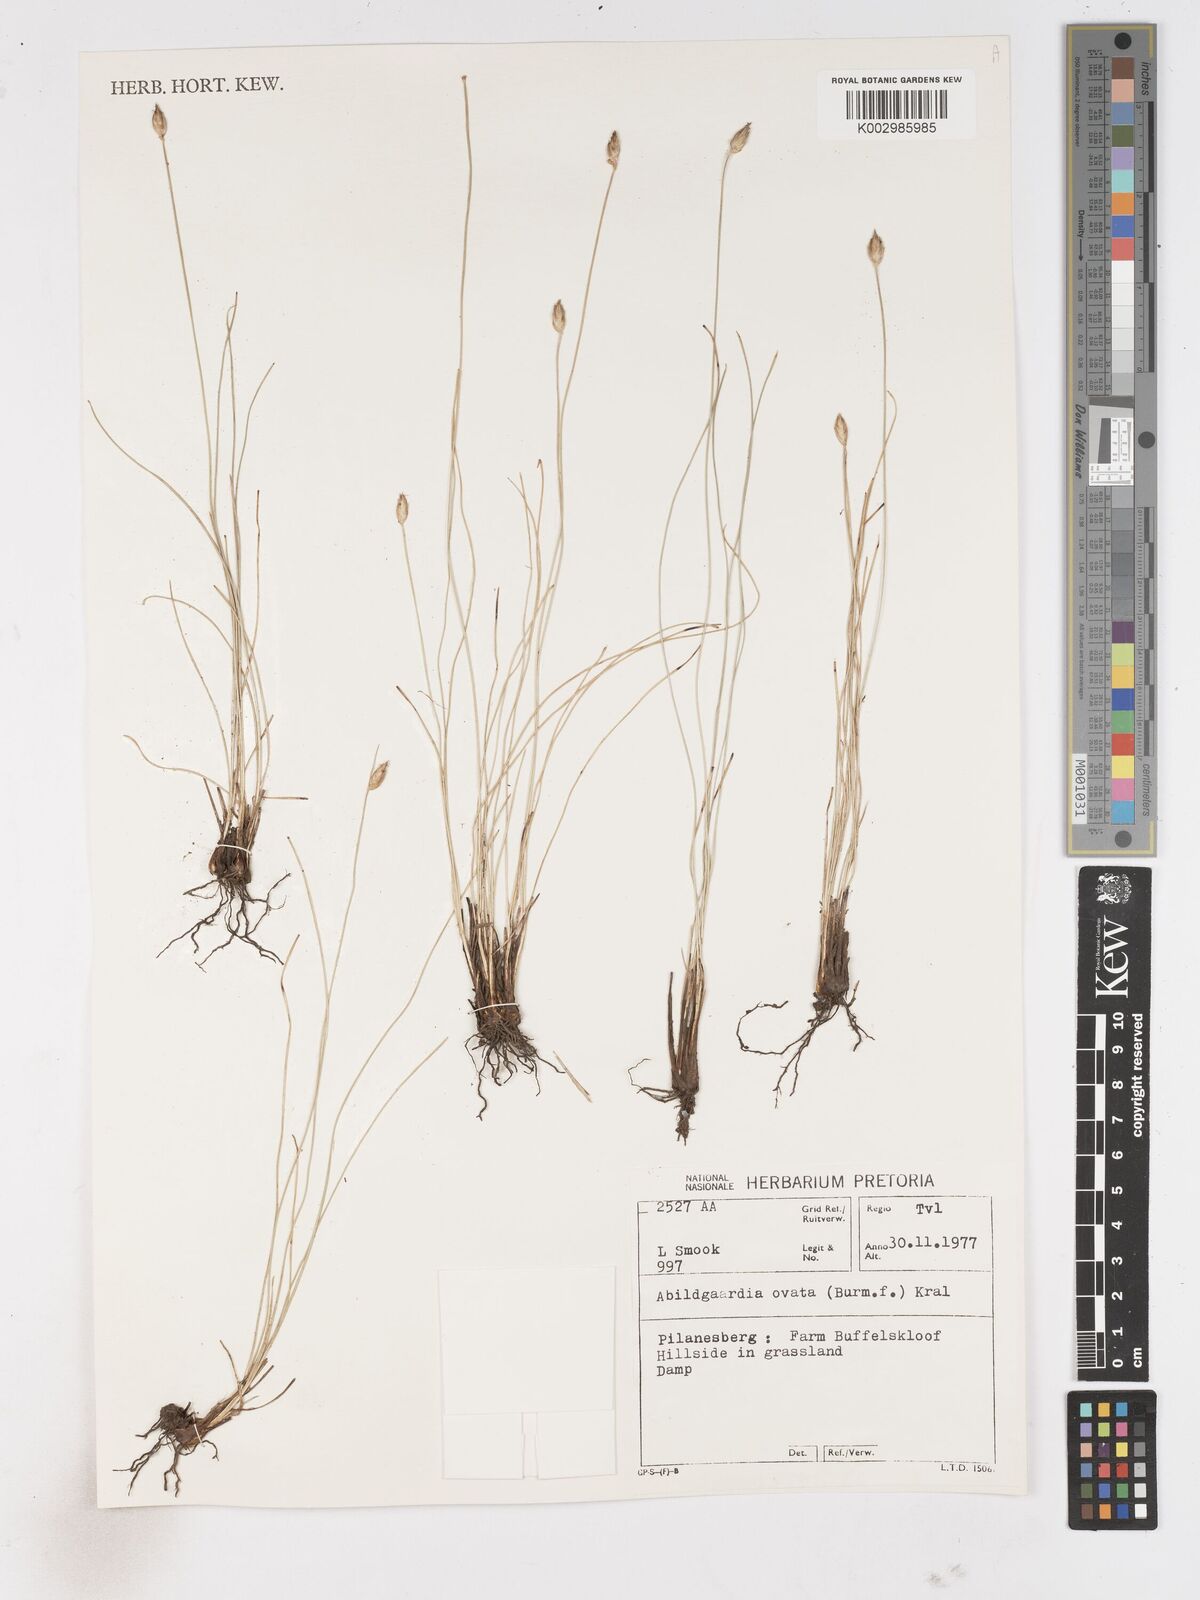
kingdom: Plantae
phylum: Tracheophyta
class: Liliopsida
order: Poales
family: Cyperaceae
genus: Abildgaardia
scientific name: Abildgaardia ovata
